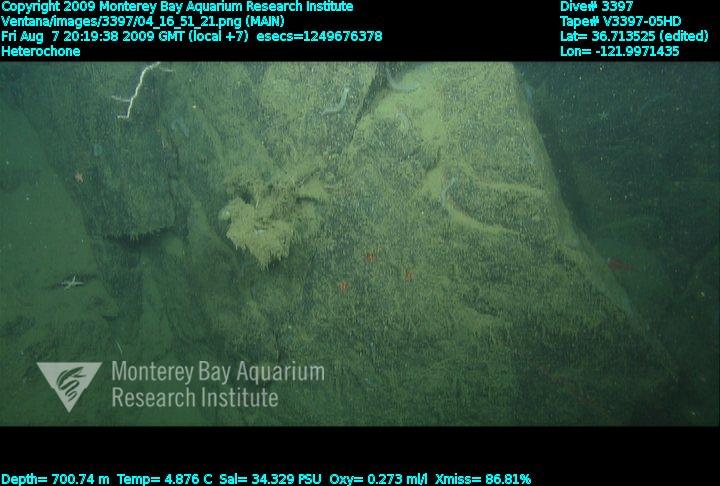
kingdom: Animalia
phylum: Porifera
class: Hexactinellida
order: Sceptrulophora
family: Aphrocallistidae
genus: Heterochone
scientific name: Heterochone
